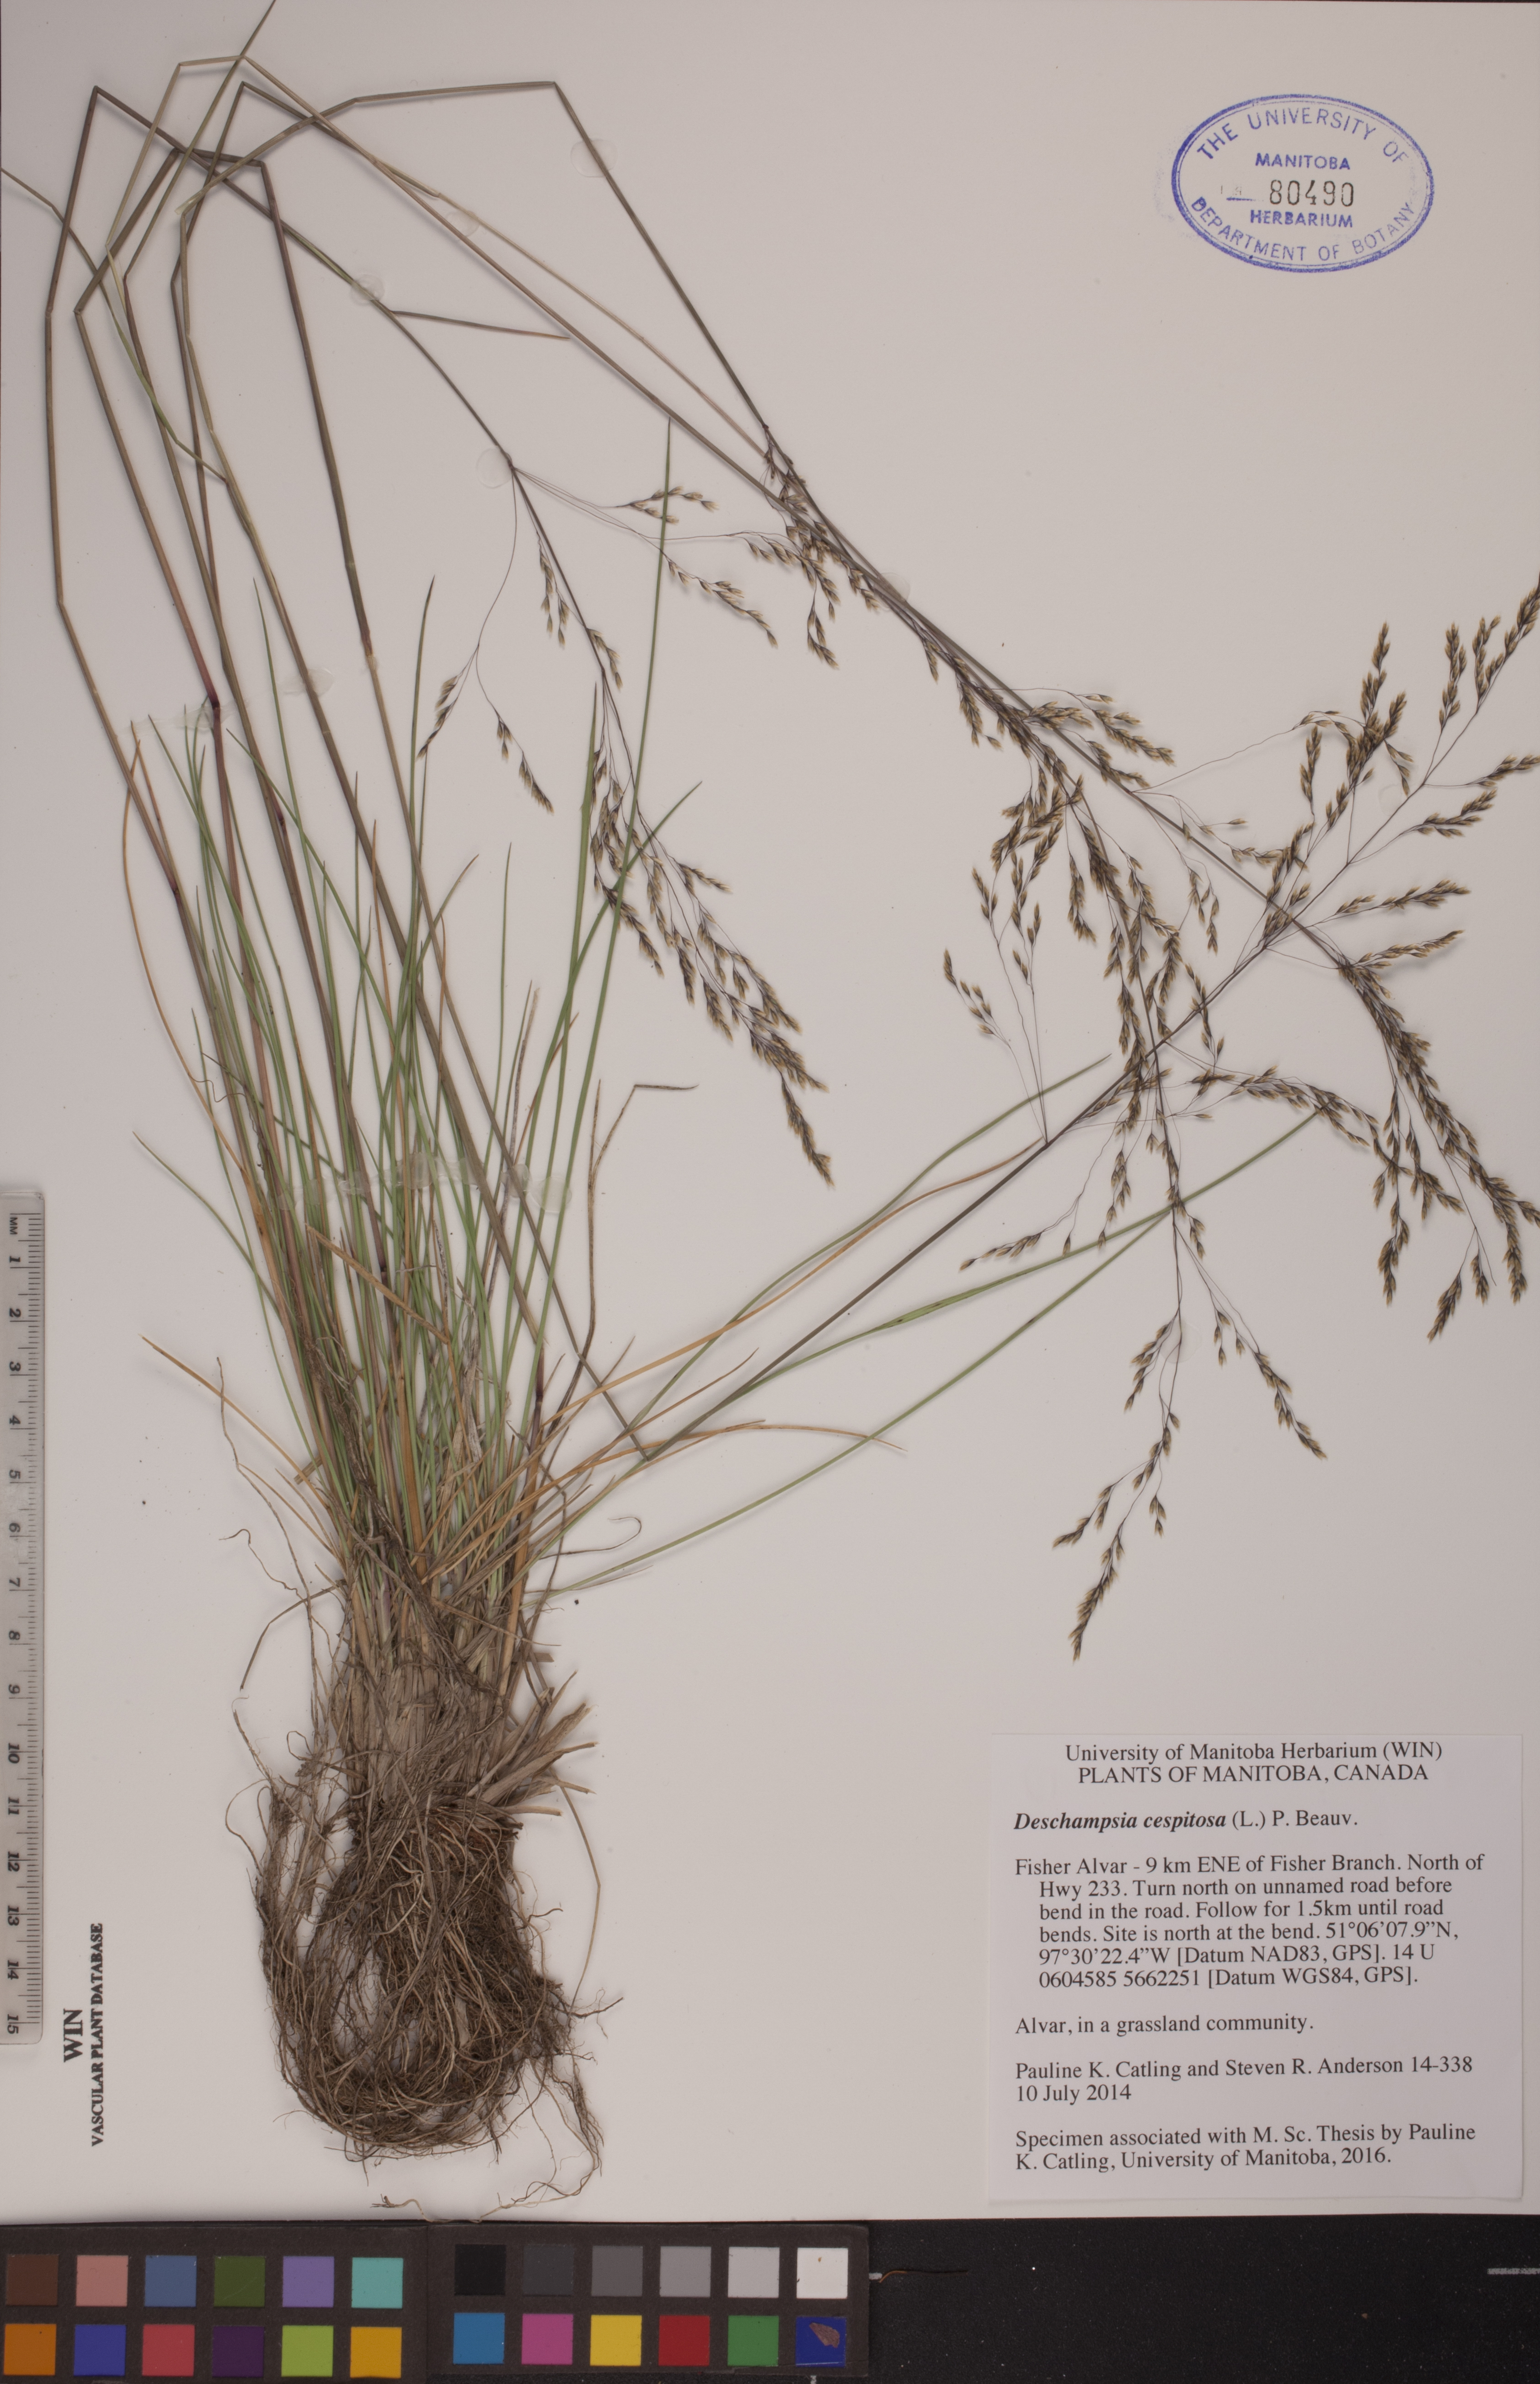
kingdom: Plantae
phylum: Tracheophyta
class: Liliopsida
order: Poales
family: Poaceae
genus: Deschampsia
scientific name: Deschampsia cespitosa
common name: Tufted hair-grass
